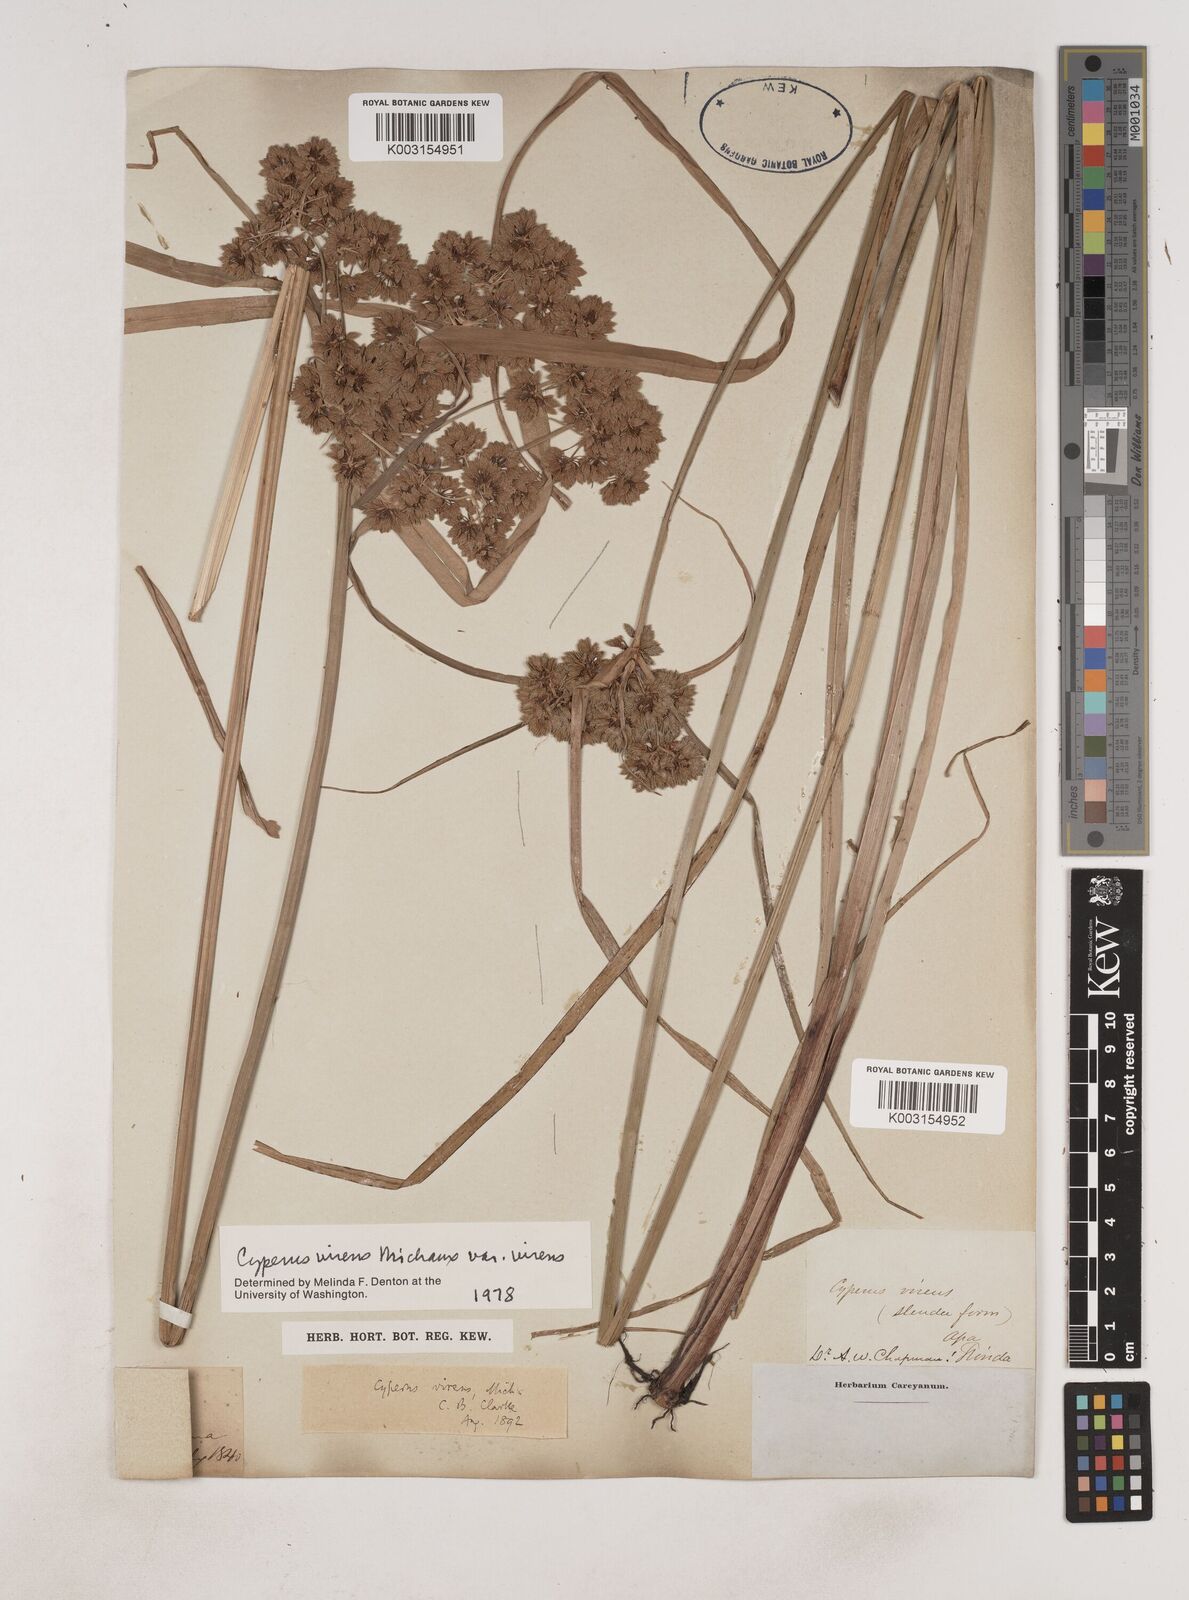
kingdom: Plantae
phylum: Tracheophyta
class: Liliopsida
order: Poales
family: Cyperaceae
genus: Cyperus
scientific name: Cyperus virens
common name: Green flatsedge
